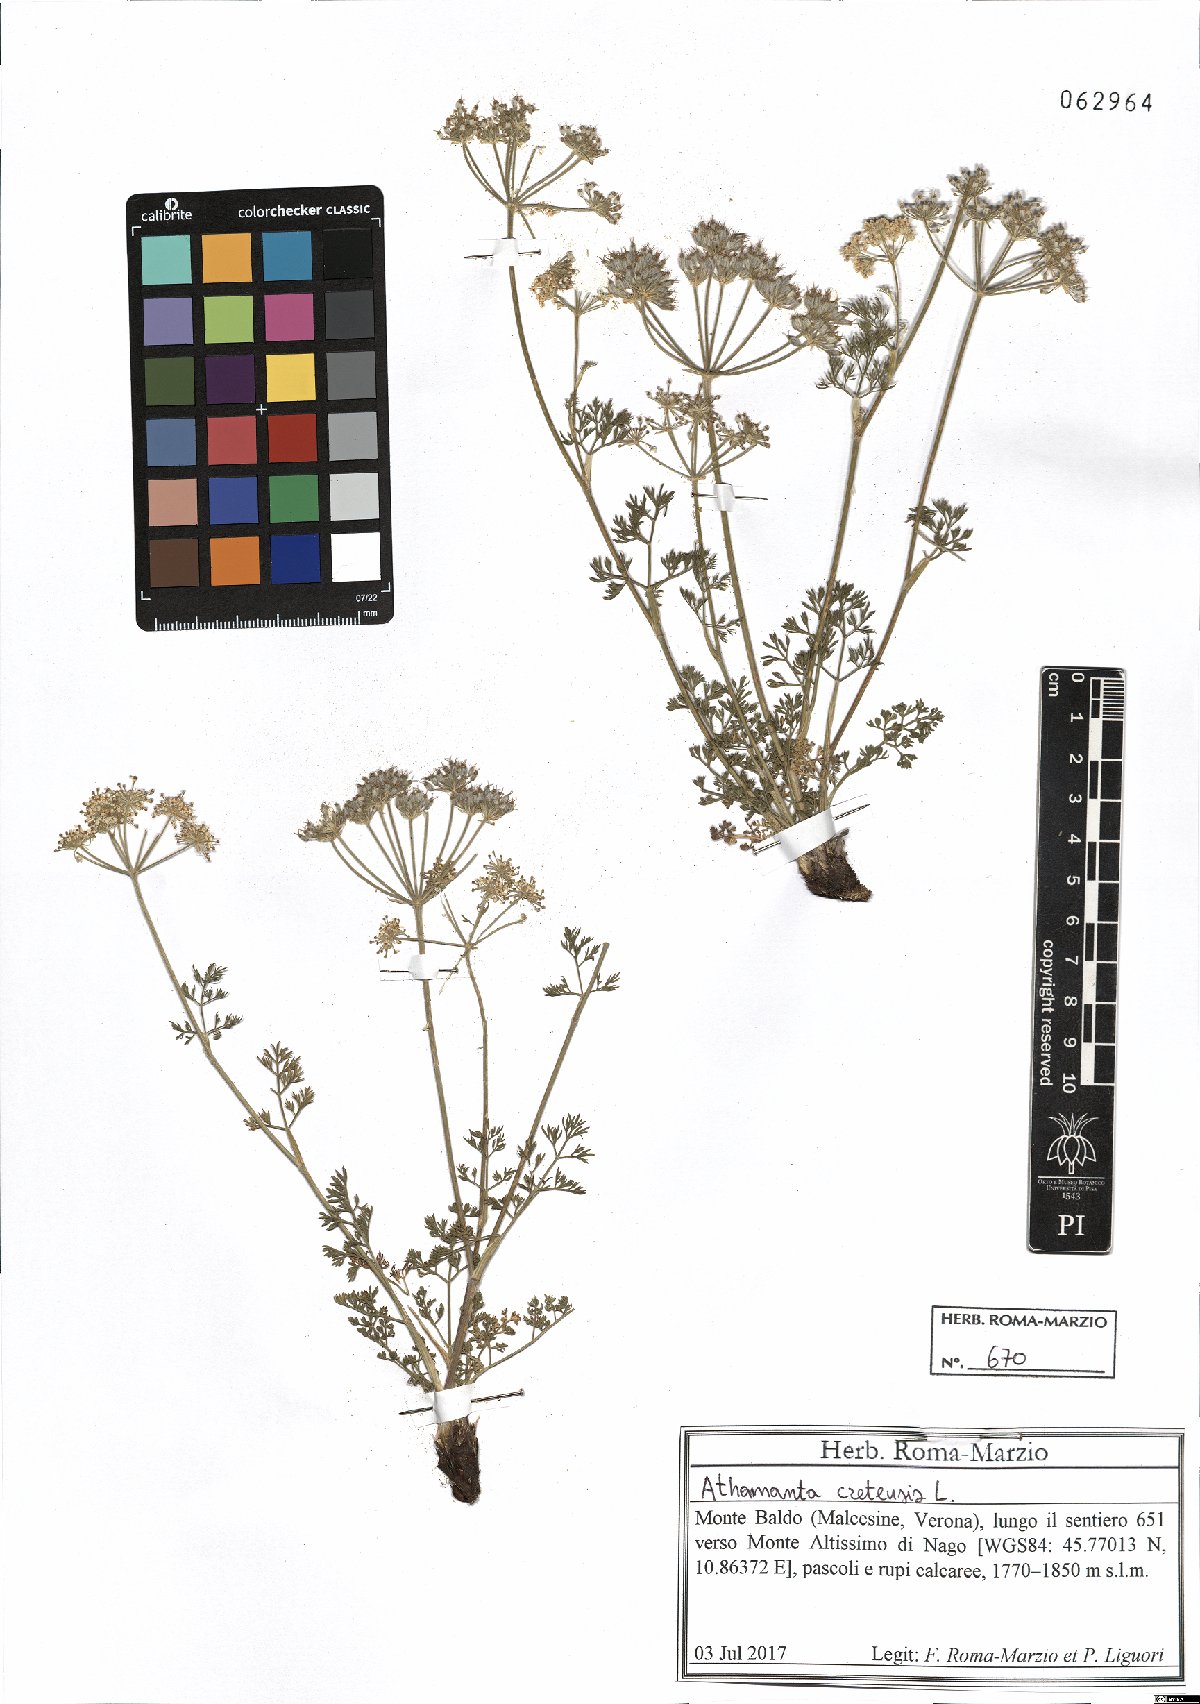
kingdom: Plantae
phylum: Tracheophyta
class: Magnoliopsida
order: Apiales
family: Apiaceae
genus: Athamanta
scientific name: Athamanta cretensis
